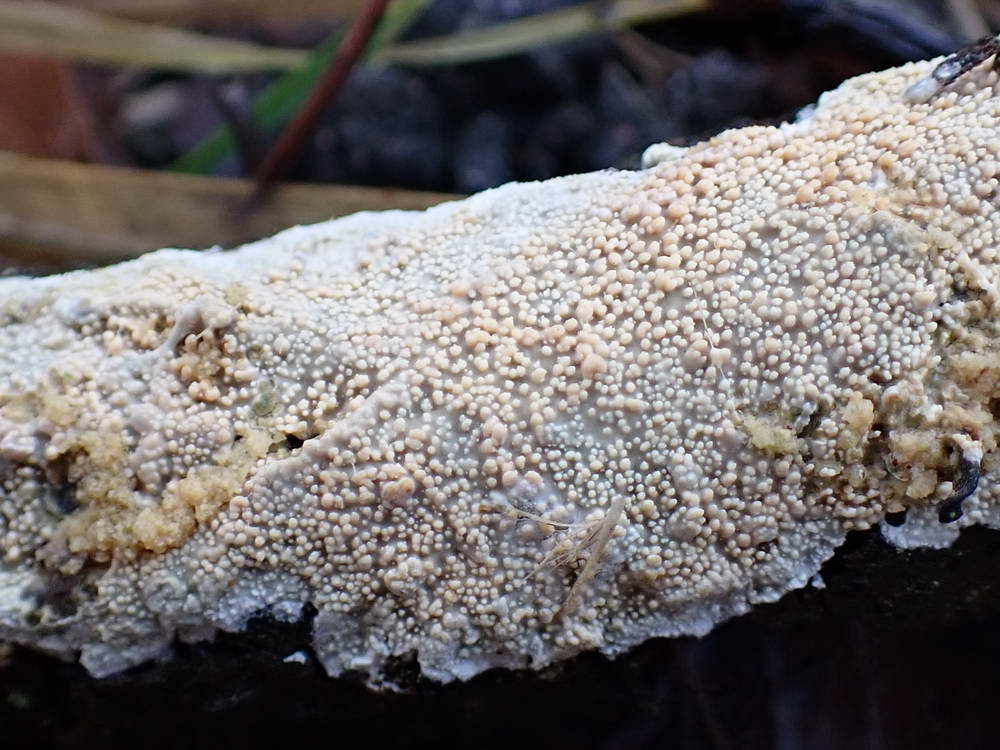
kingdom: Fungi
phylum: Basidiomycota
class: Agaricomycetes
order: Hymenochaetales
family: Schizoporaceae
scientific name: Schizoporaceae
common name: tandsvampfamilien
